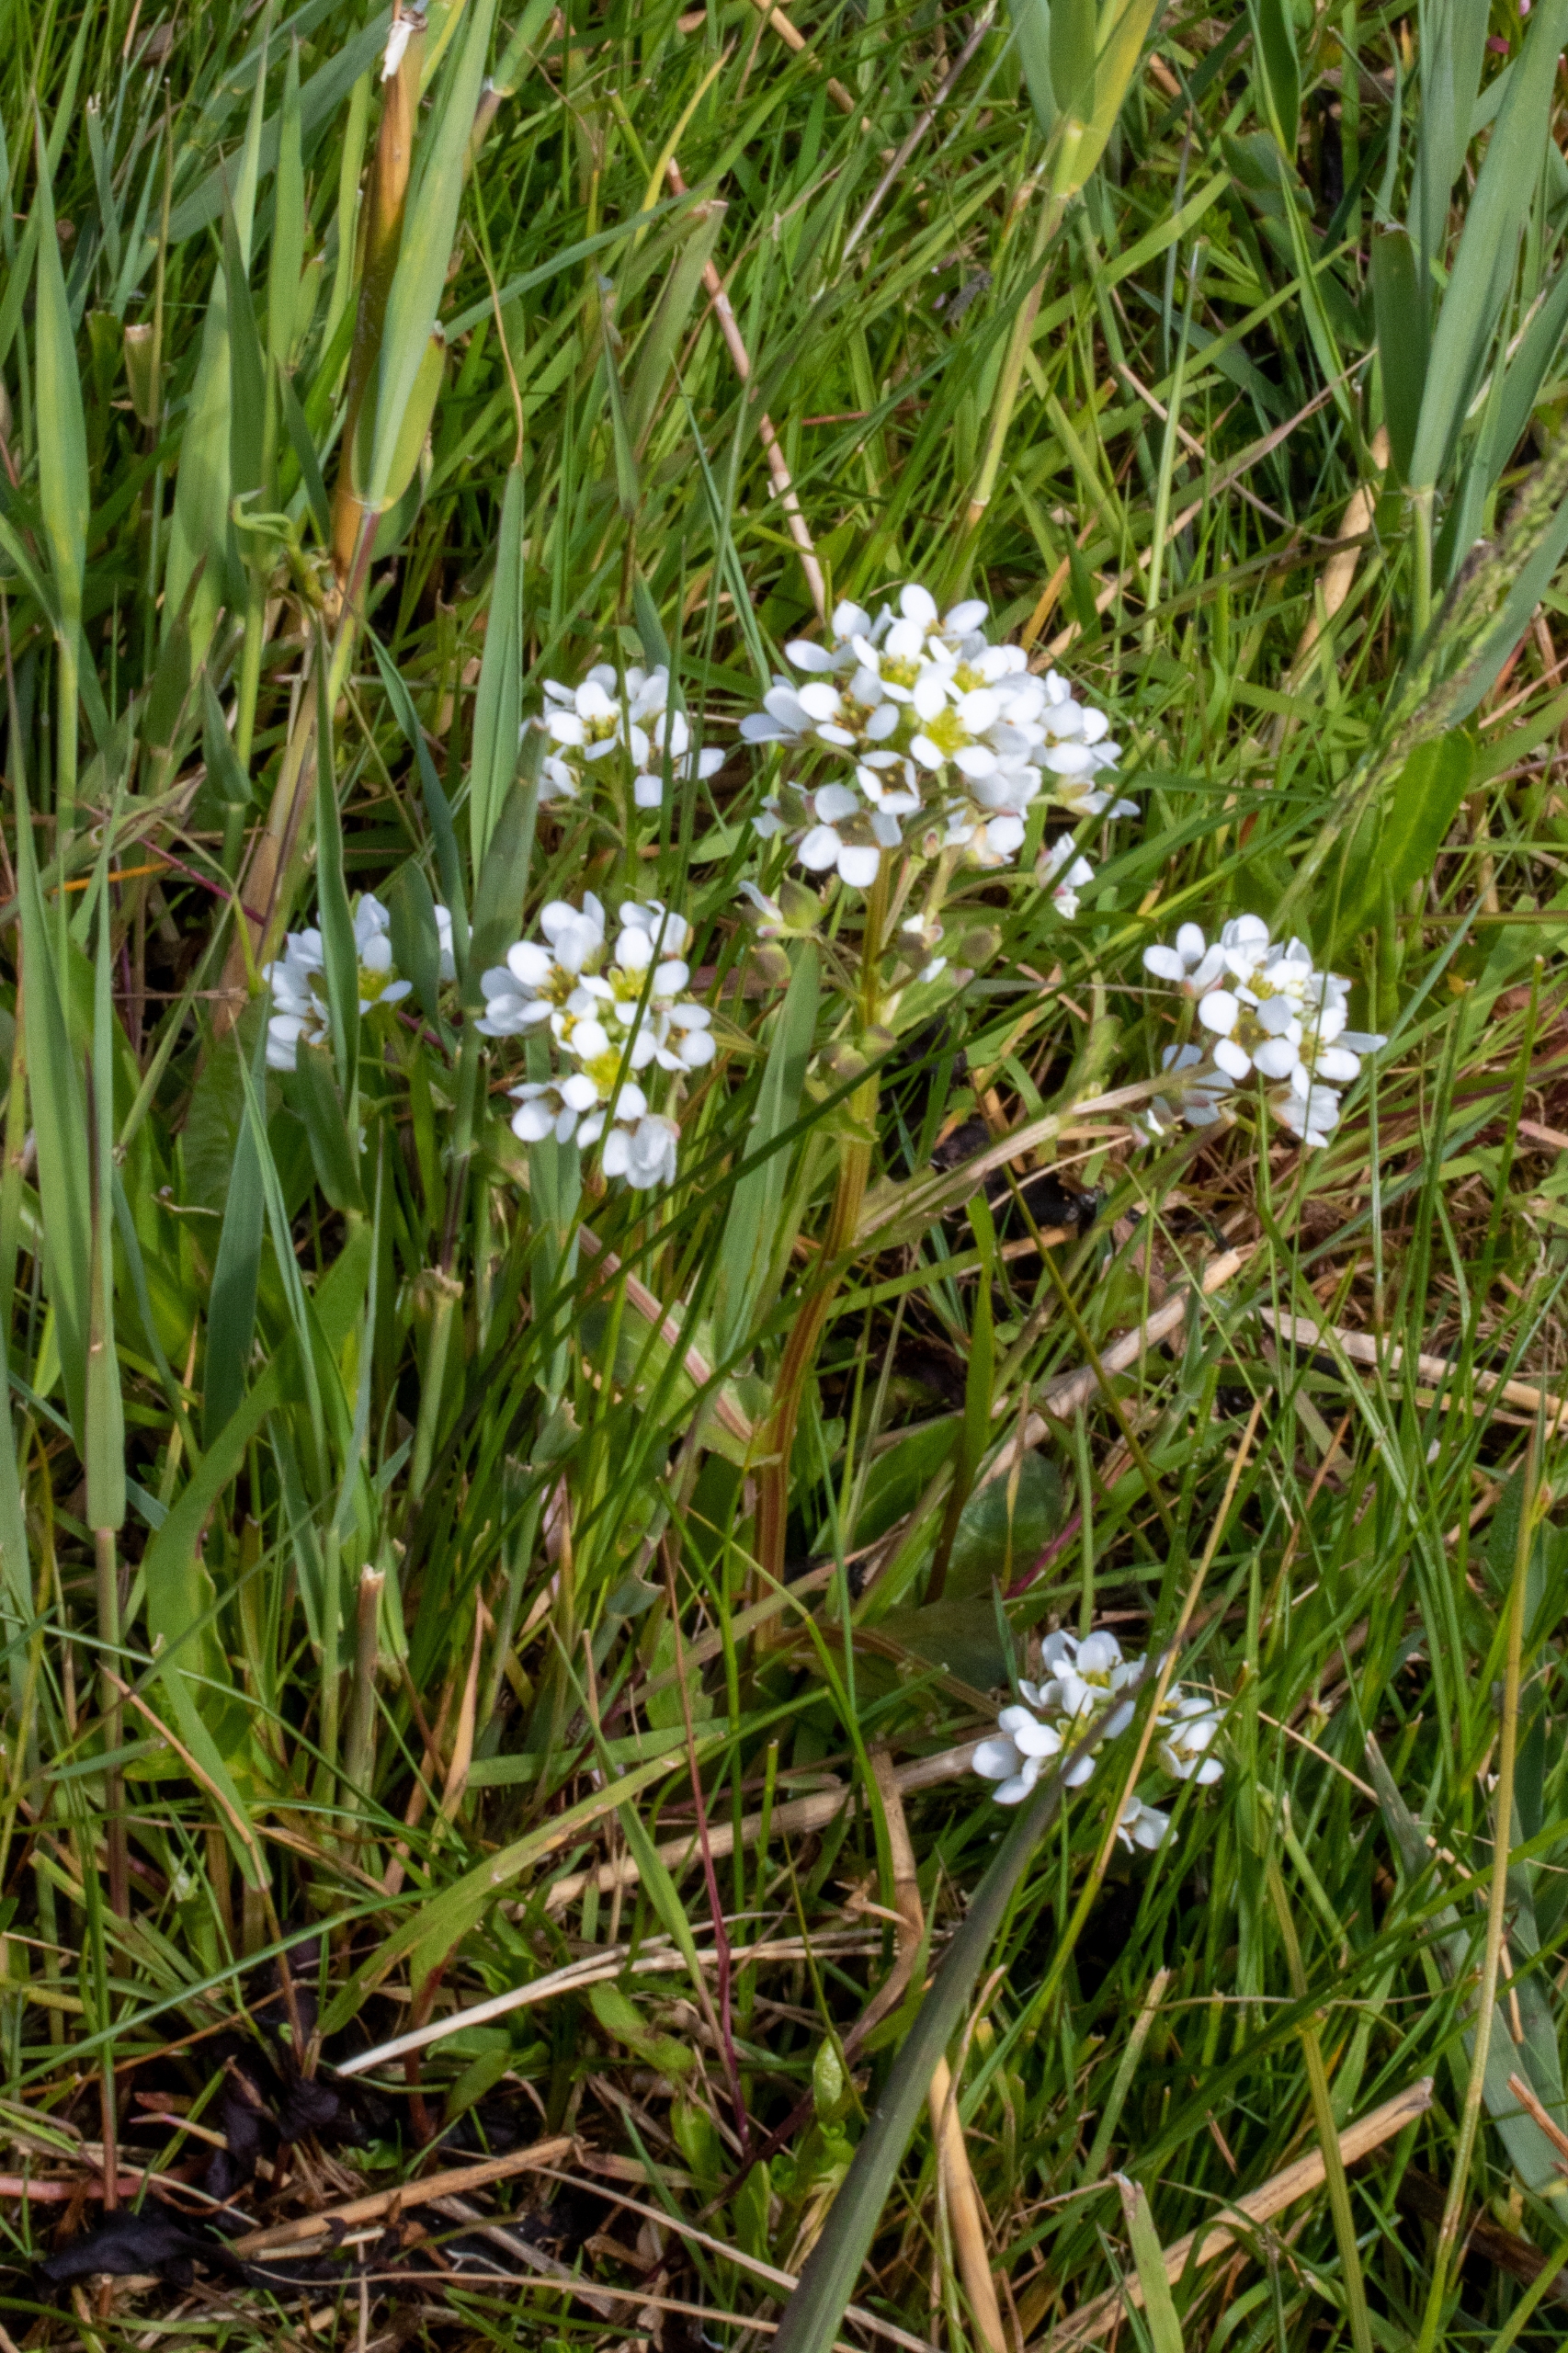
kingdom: Plantae
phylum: Tracheophyta
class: Magnoliopsida
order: Brassicales
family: Brassicaceae
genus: Cochlearia
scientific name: Cochlearia officinalis
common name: Læge-kokleare
